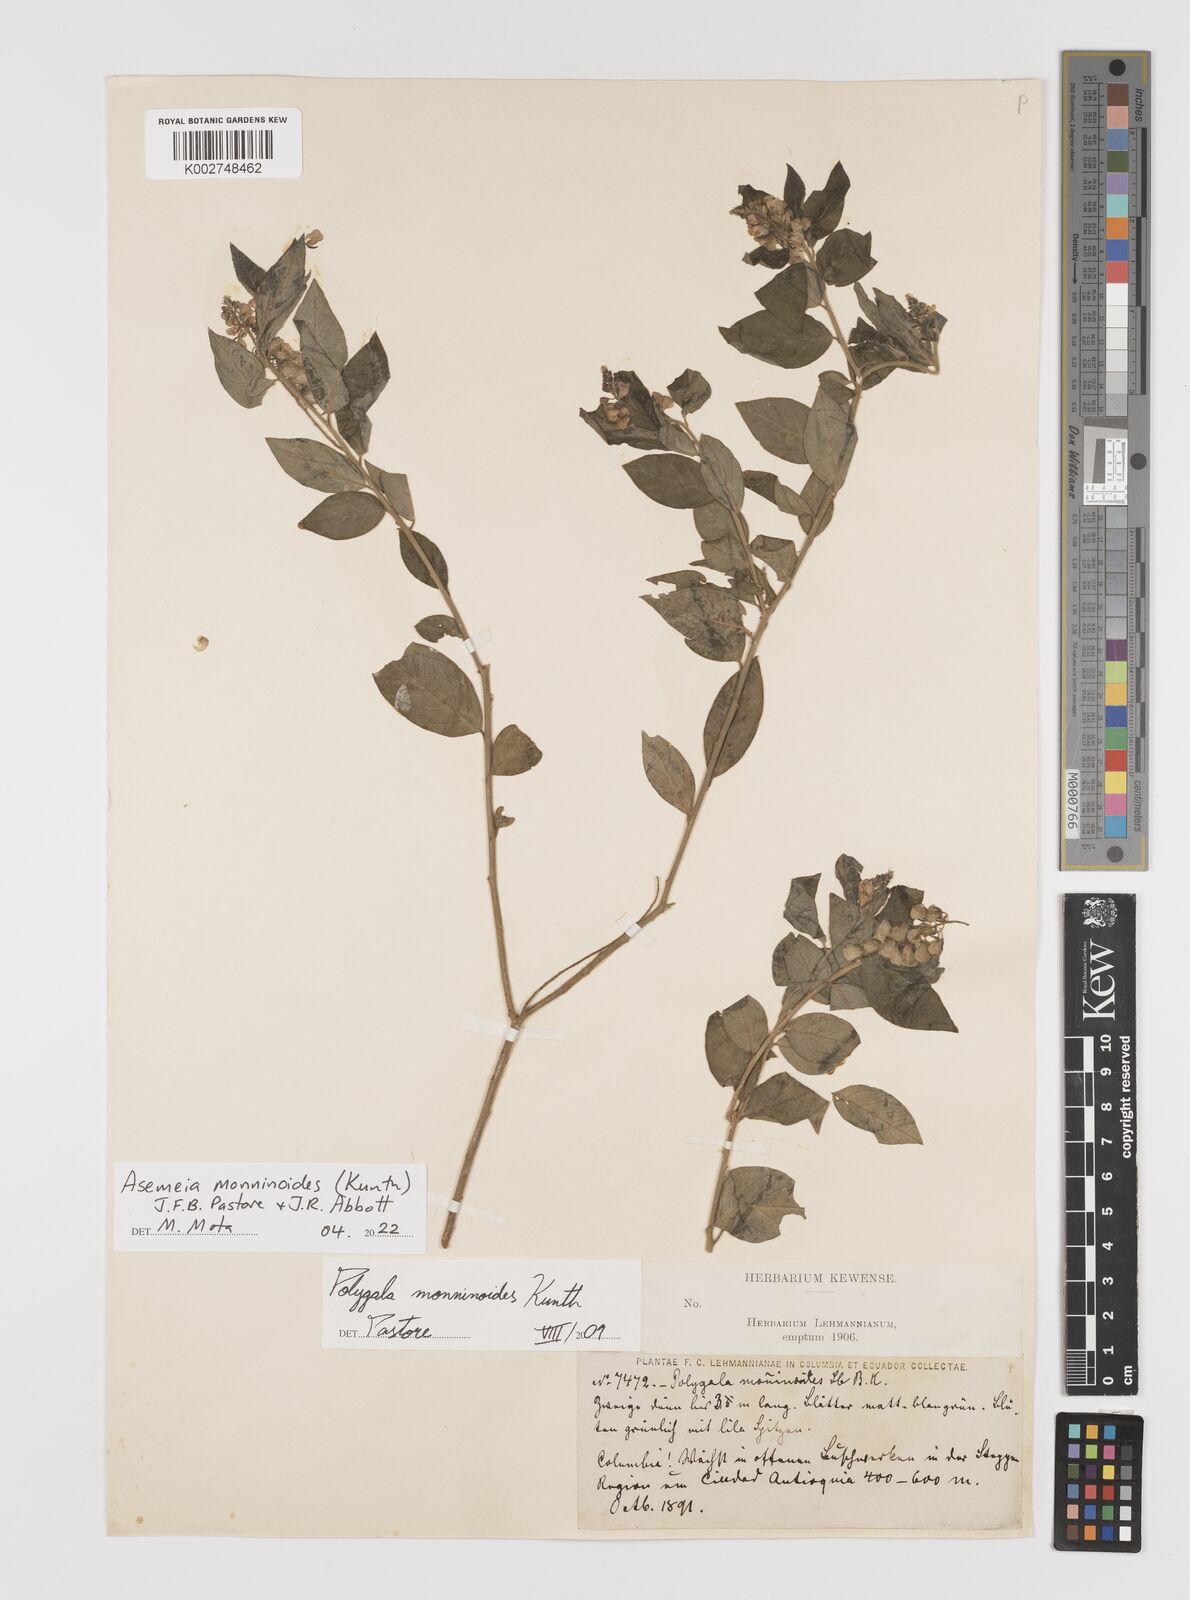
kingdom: Plantae
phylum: Tracheophyta
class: Magnoliopsida
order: Fabales
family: Polygalaceae
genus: Asemeia
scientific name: Asemeia monninoides
